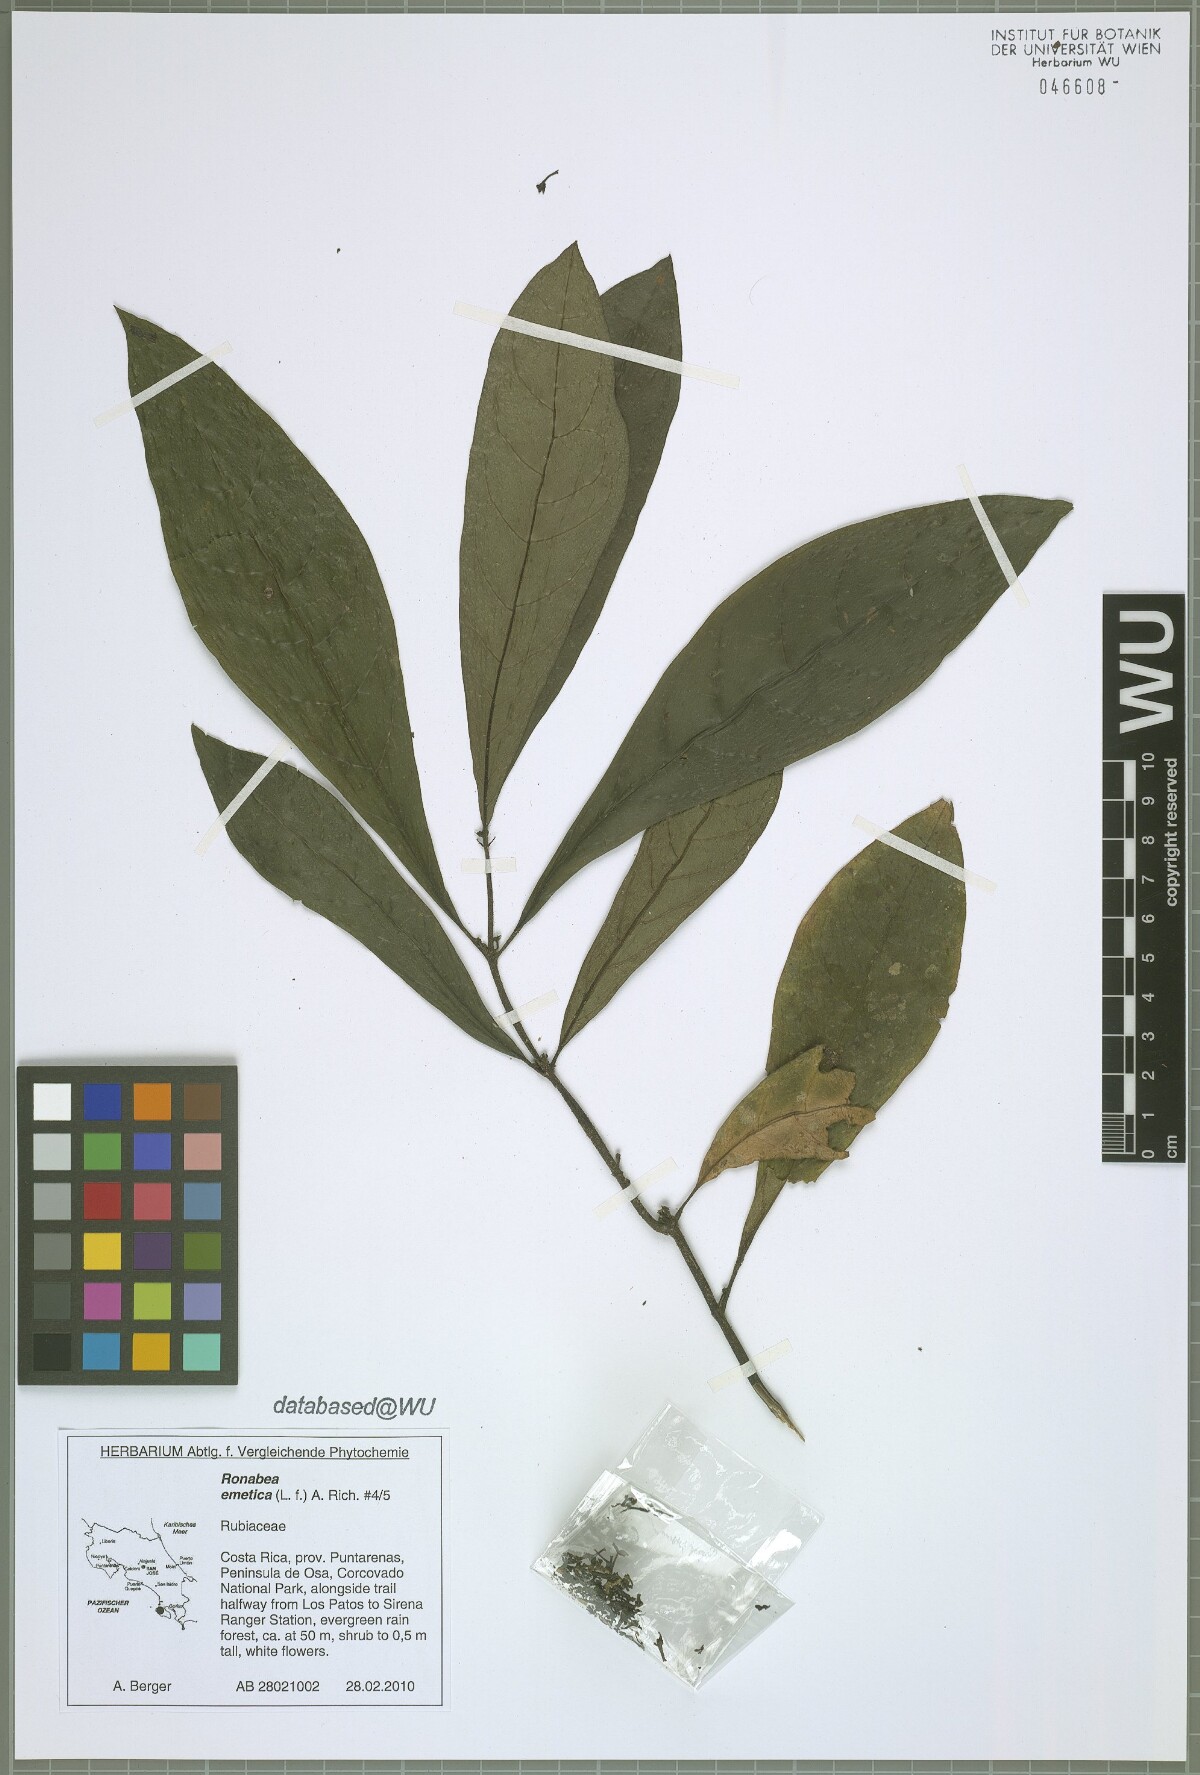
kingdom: Plantae
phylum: Tracheophyta
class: Magnoliopsida
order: Gentianales
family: Rubiaceae
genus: Ronabea
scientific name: Ronabea emetica
